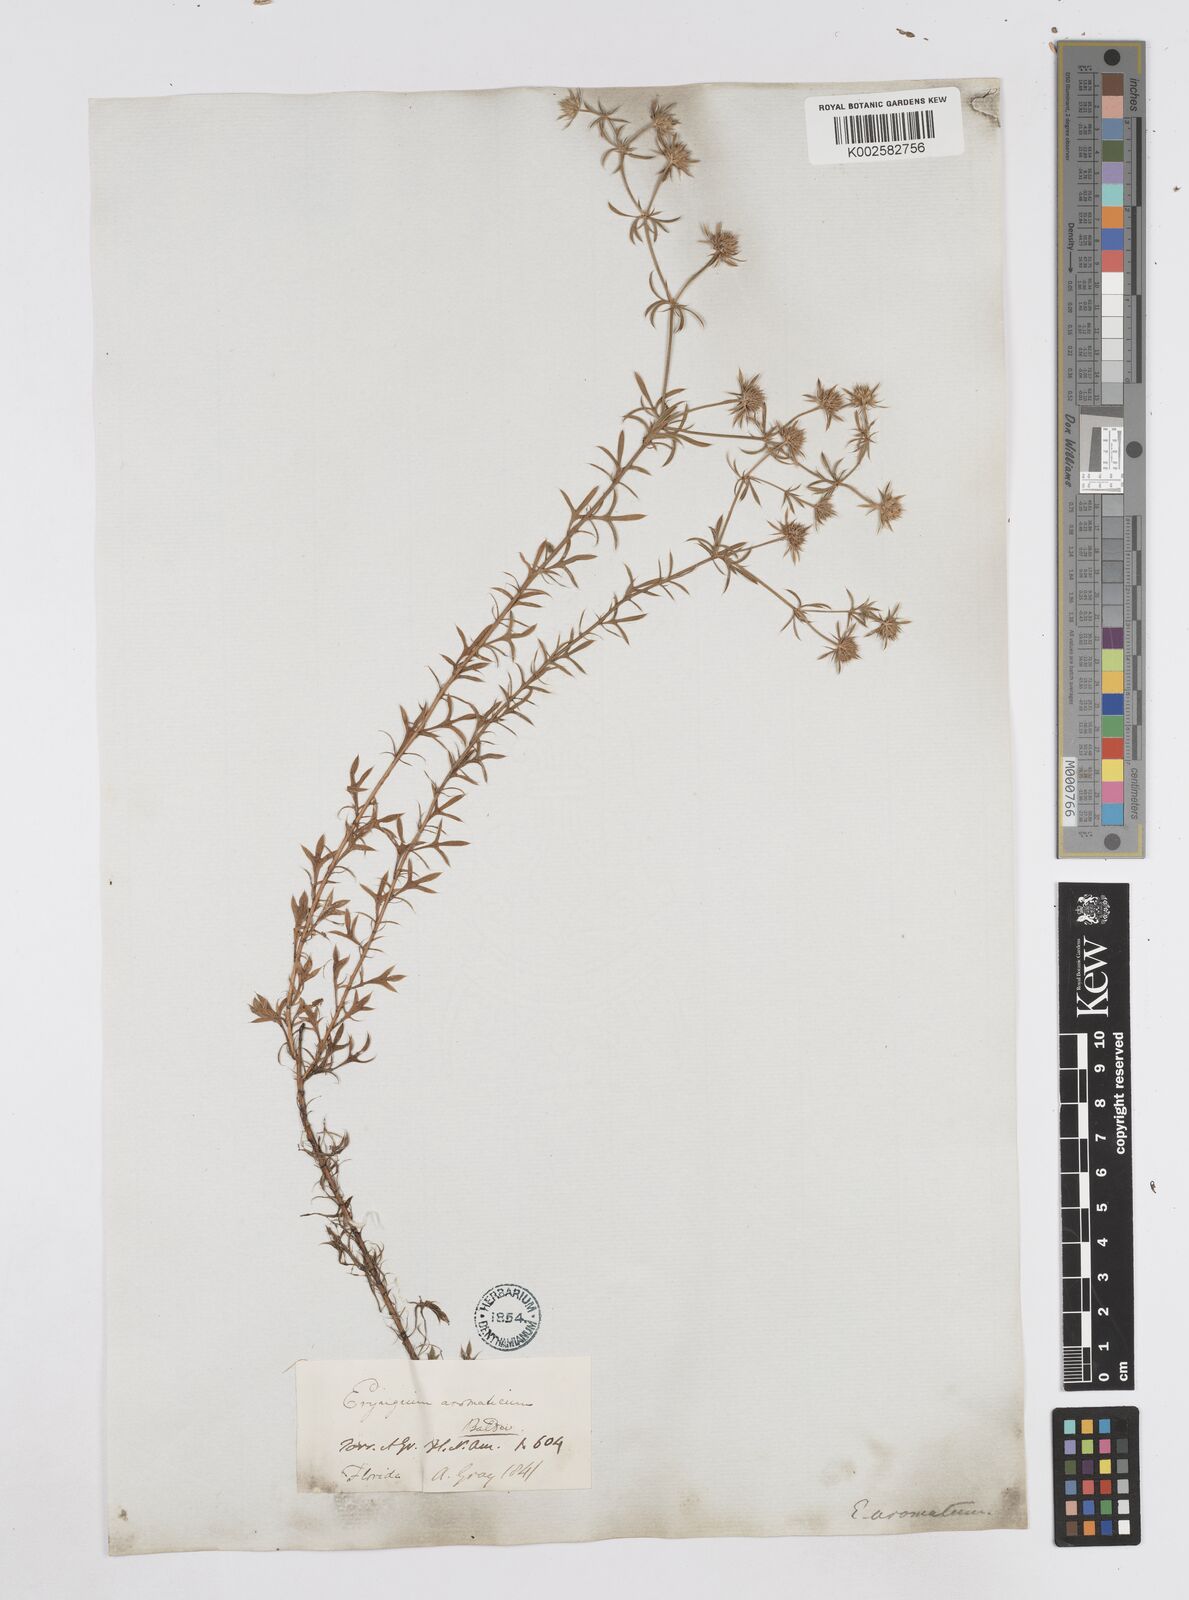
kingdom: Plantae
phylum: Tracheophyta
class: Magnoliopsida
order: Apiales
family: Apiaceae
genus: Eryngium
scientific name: Eryngium aromaticum
